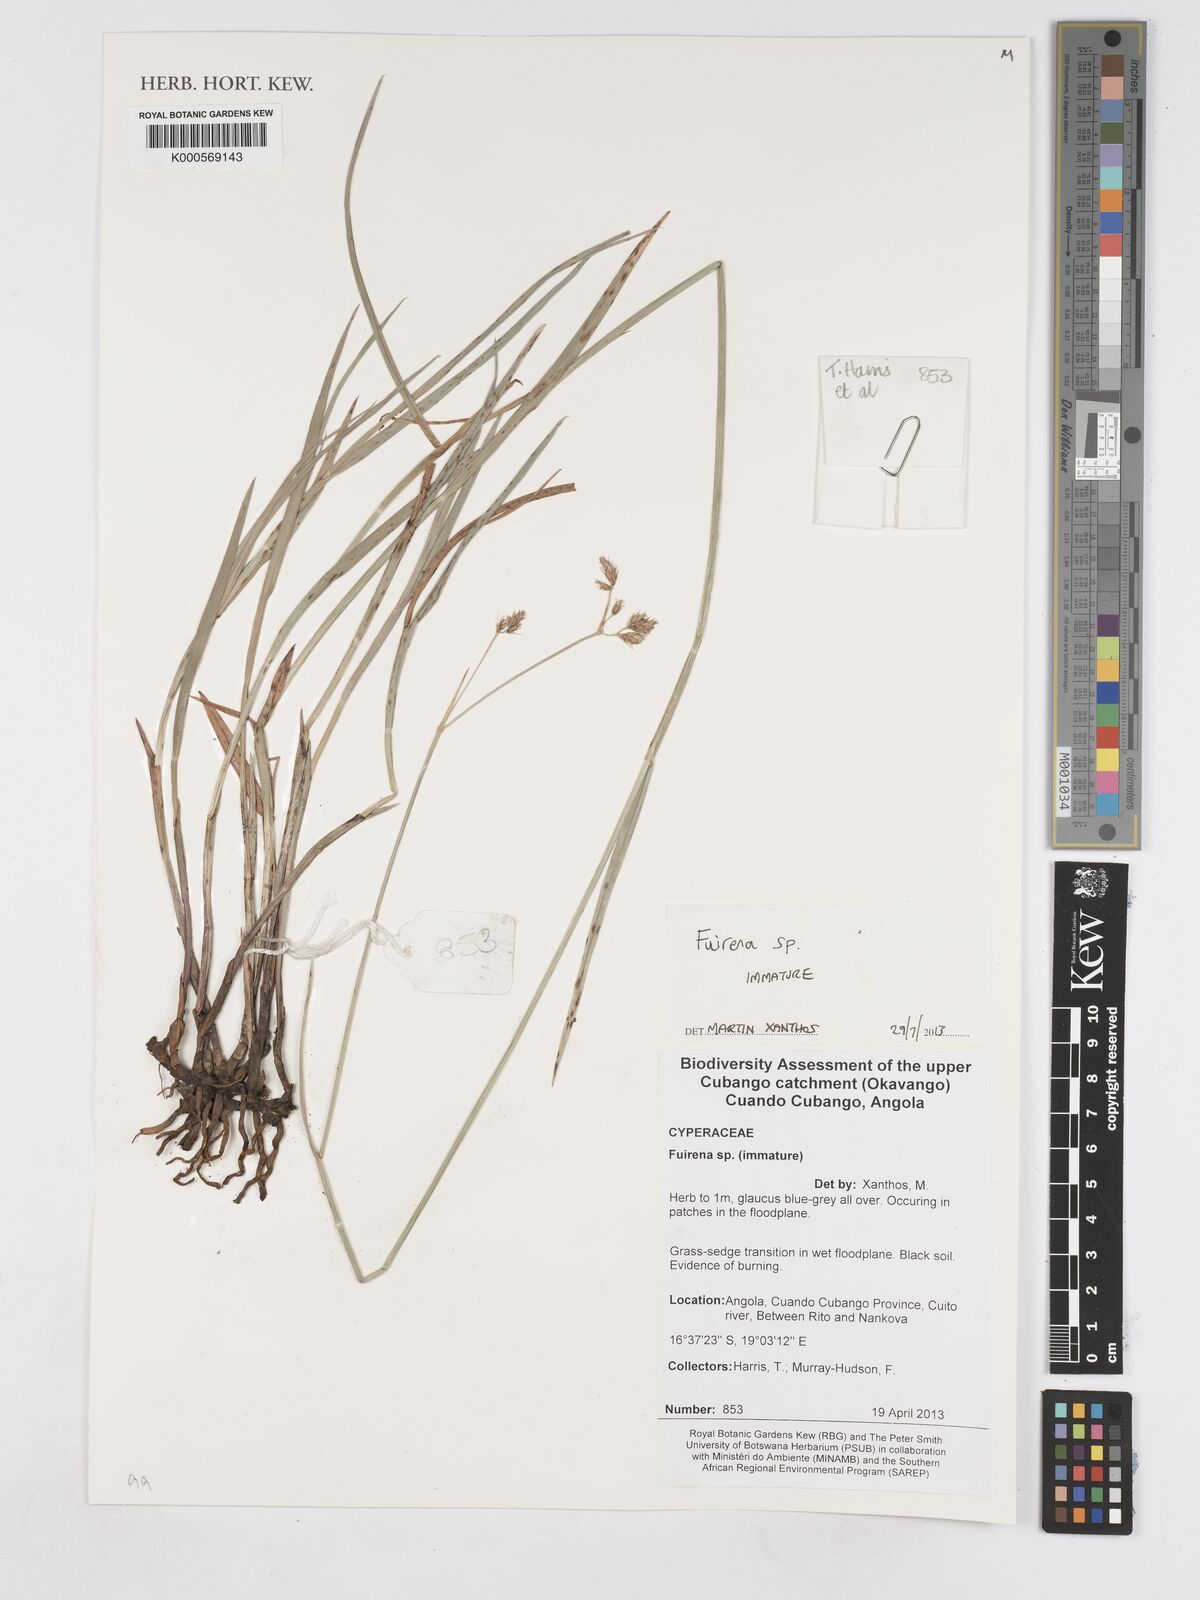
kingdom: Plantae
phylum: Tracheophyta
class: Liliopsida
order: Poales
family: Cyperaceae
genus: Fuirena
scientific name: Fuirena
